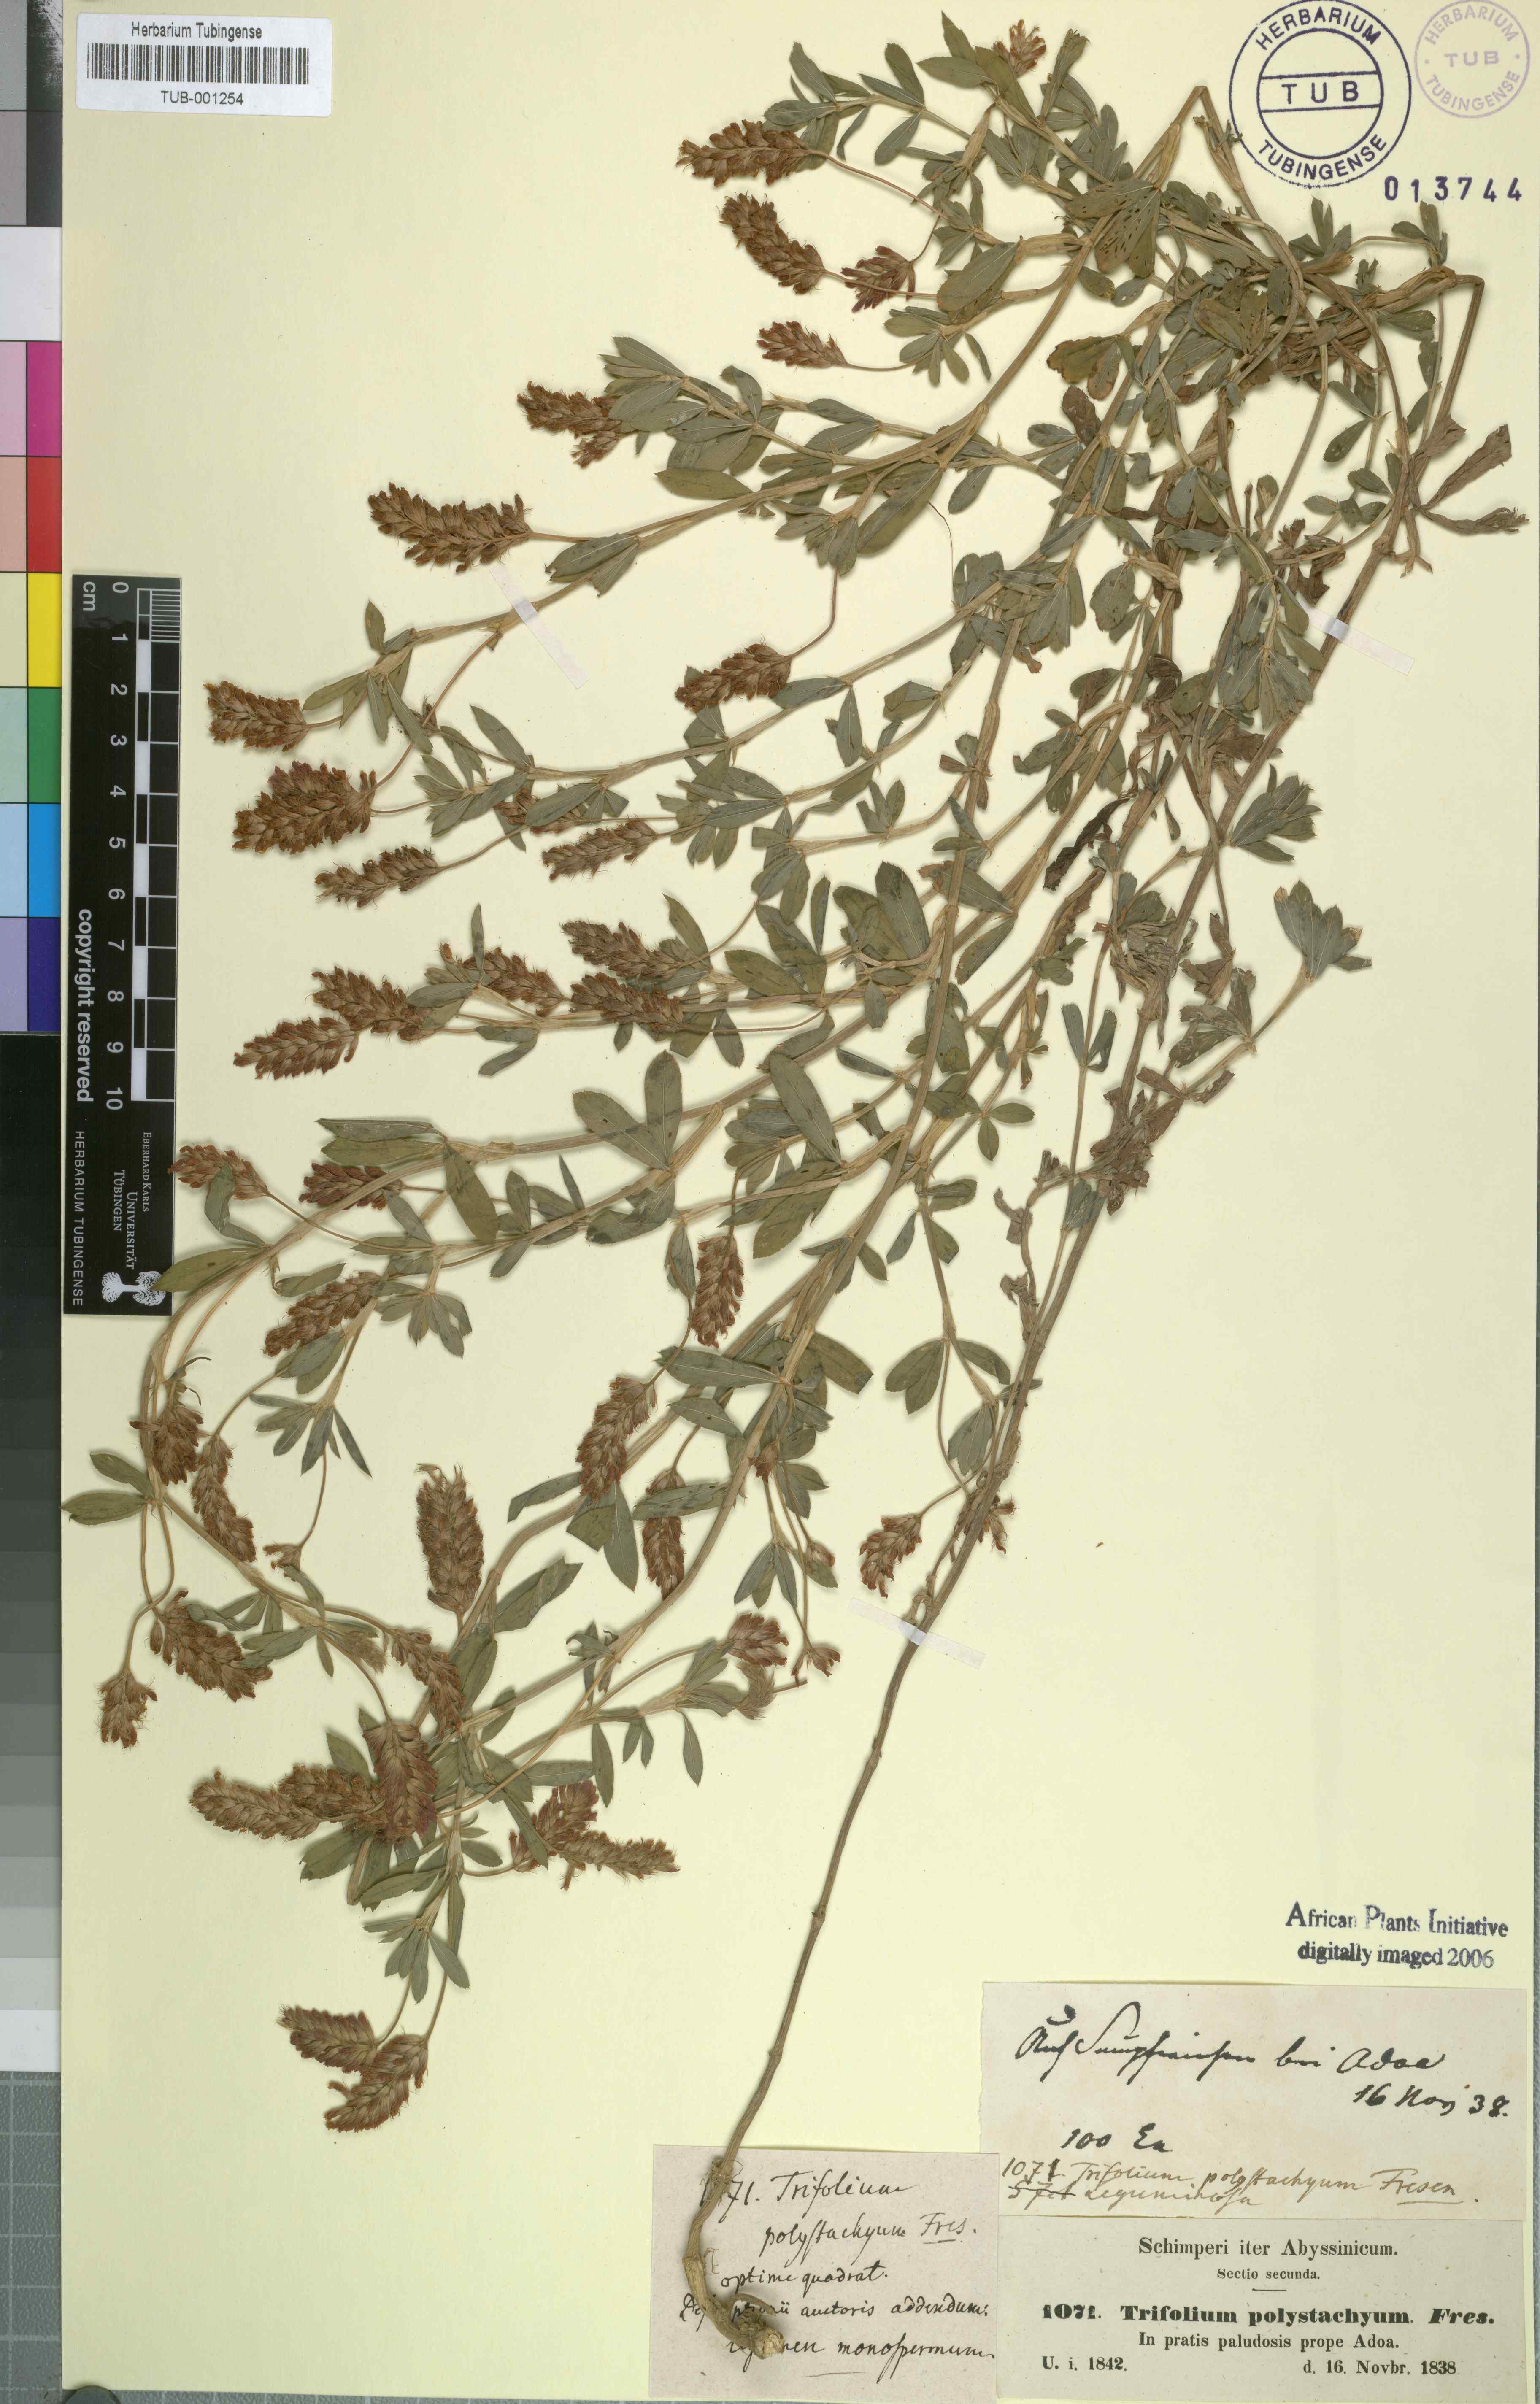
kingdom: Plantae
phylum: Tracheophyta
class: Magnoliopsida
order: Fabales
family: Fabaceae
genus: Trifolium
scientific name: Trifolium polystachyum
